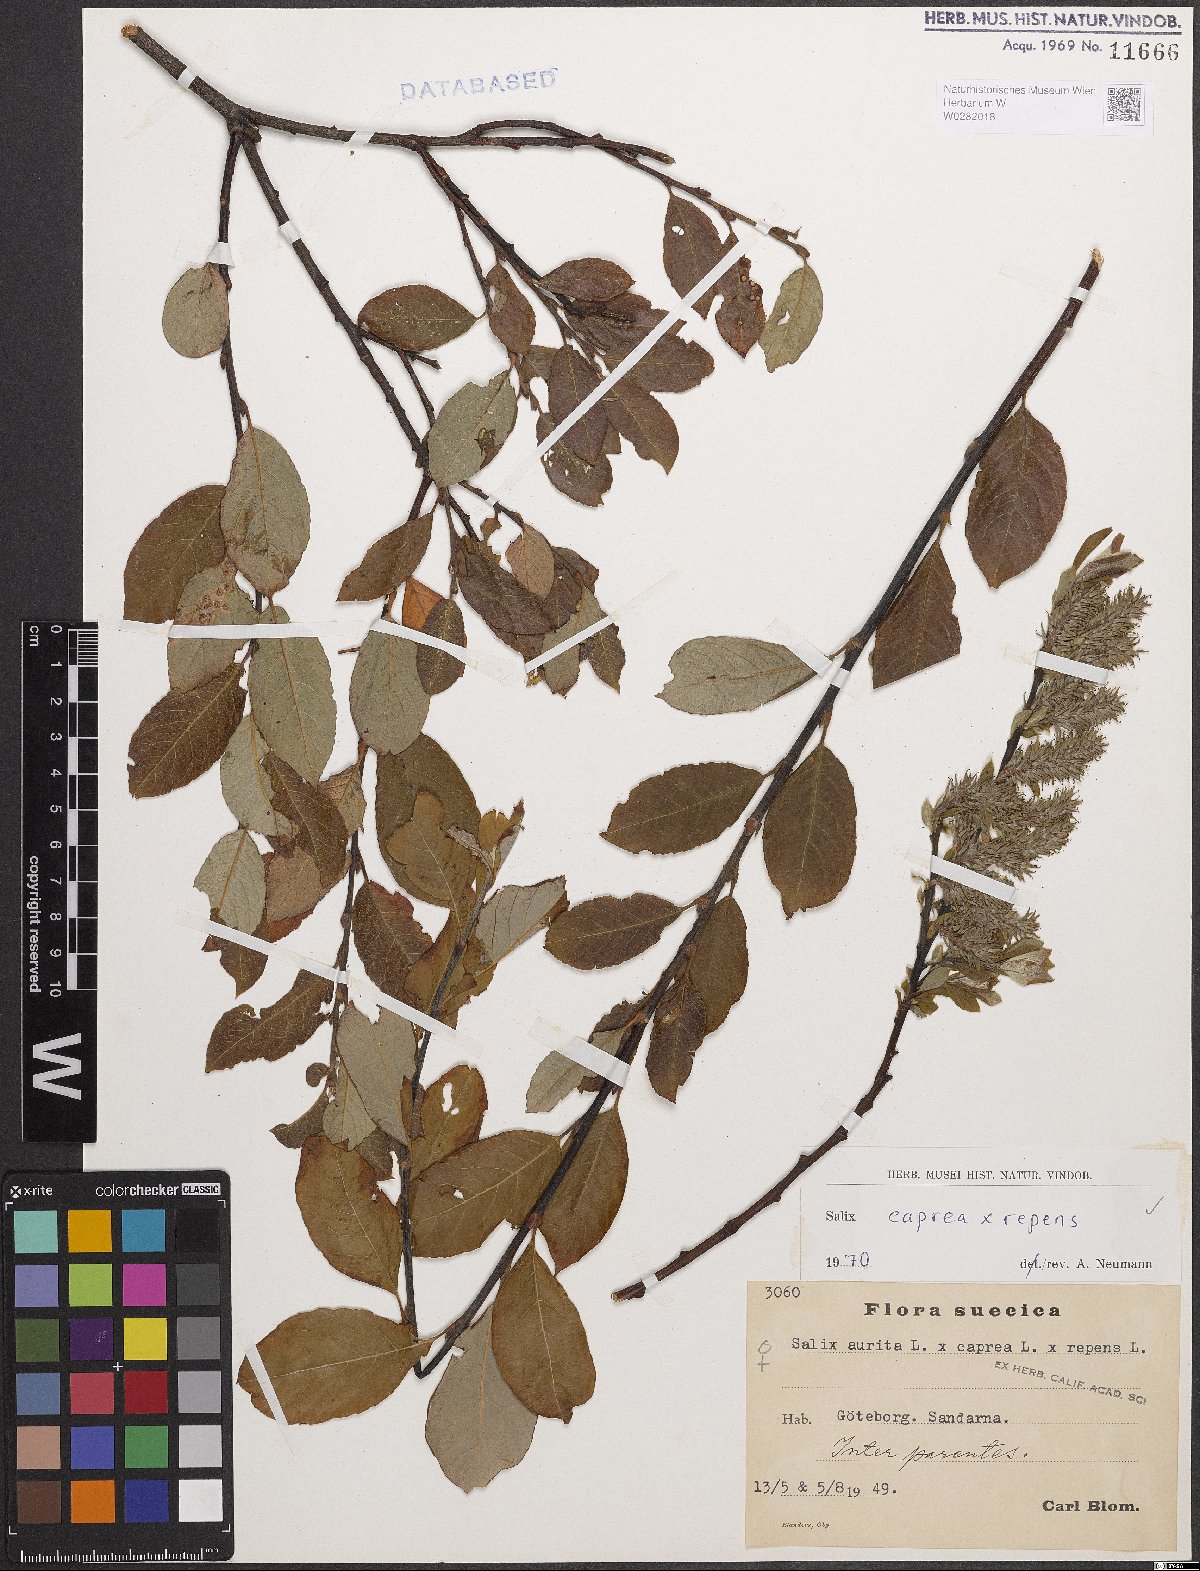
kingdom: Plantae
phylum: Tracheophyta
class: Magnoliopsida
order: Malpighiales
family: Salicaceae
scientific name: Salicaceae
